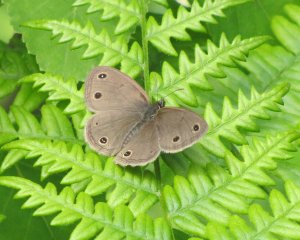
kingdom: Animalia
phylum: Arthropoda
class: Insecta
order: Lepidoptera
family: Nymphalidae
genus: Euptychia
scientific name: Euptychia cymela
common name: Little Wood Satyr
